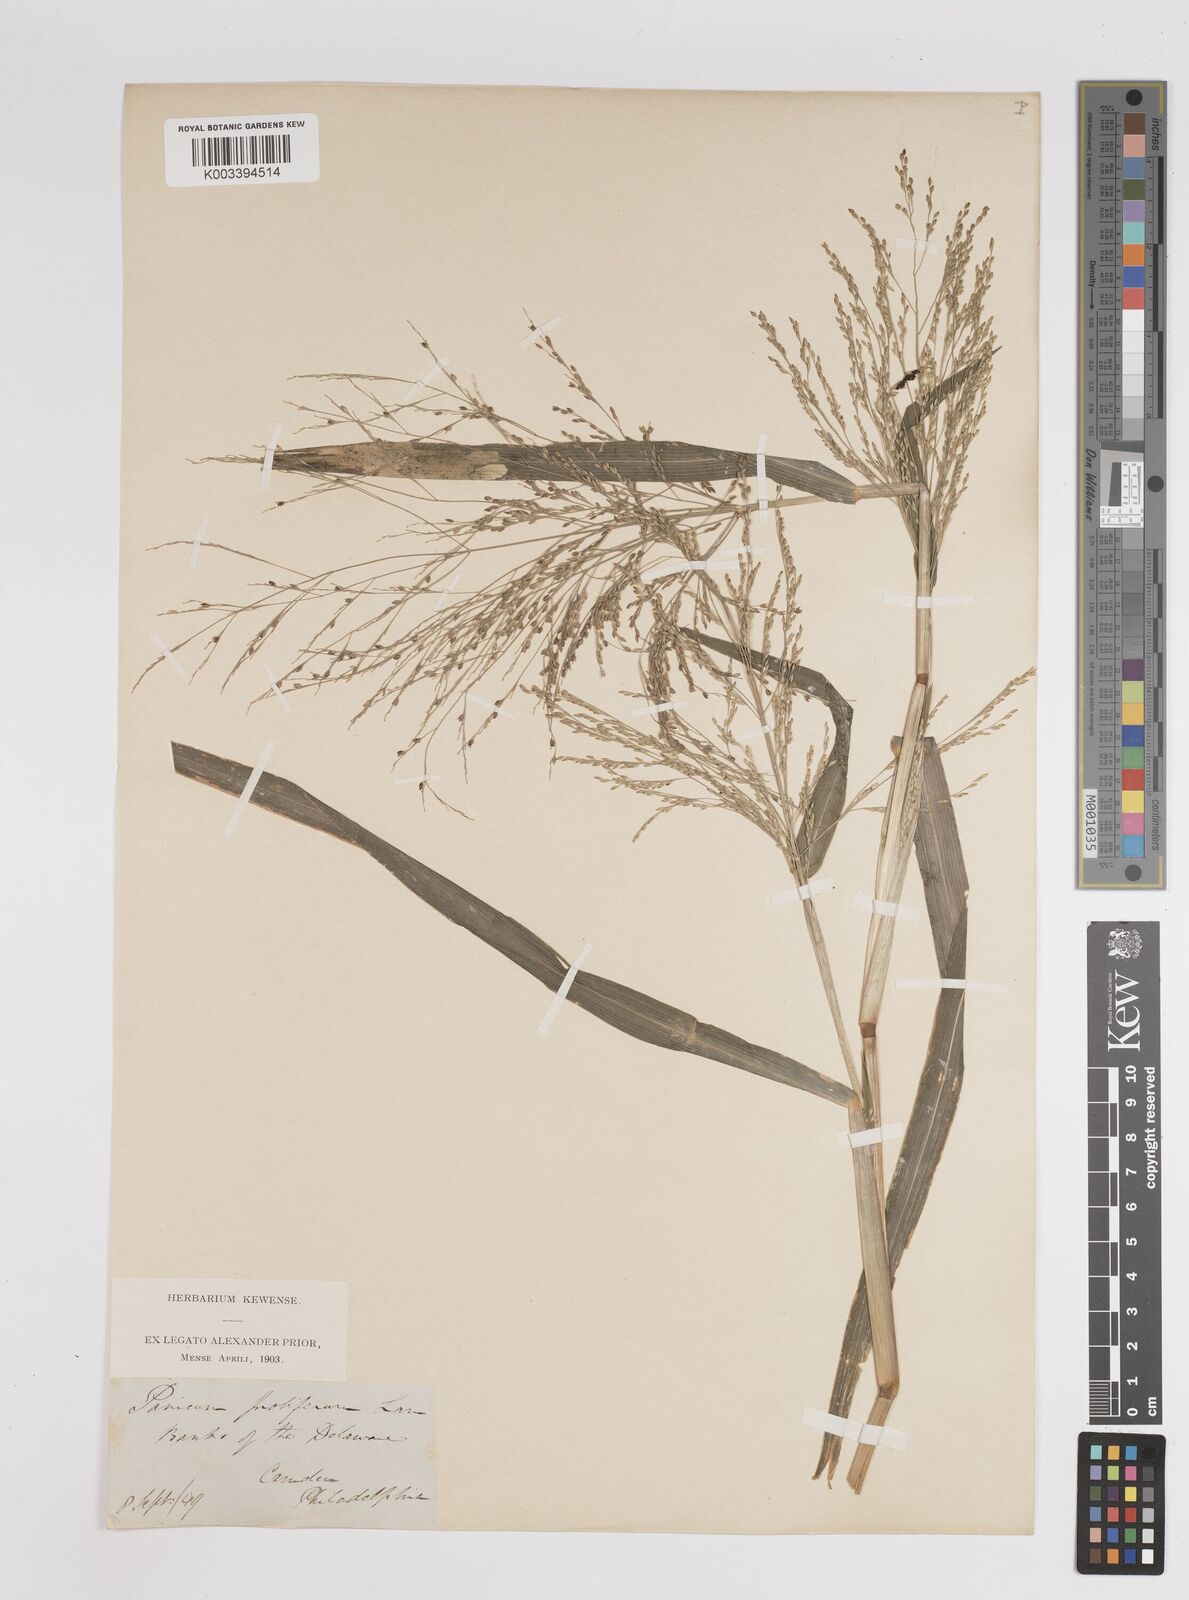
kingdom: Plantae
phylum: Tracheophyta
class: Liliopsida
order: Poales
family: Poaceae
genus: Panicum
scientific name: Panicum dichotomiflorum
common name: Autumn millet
